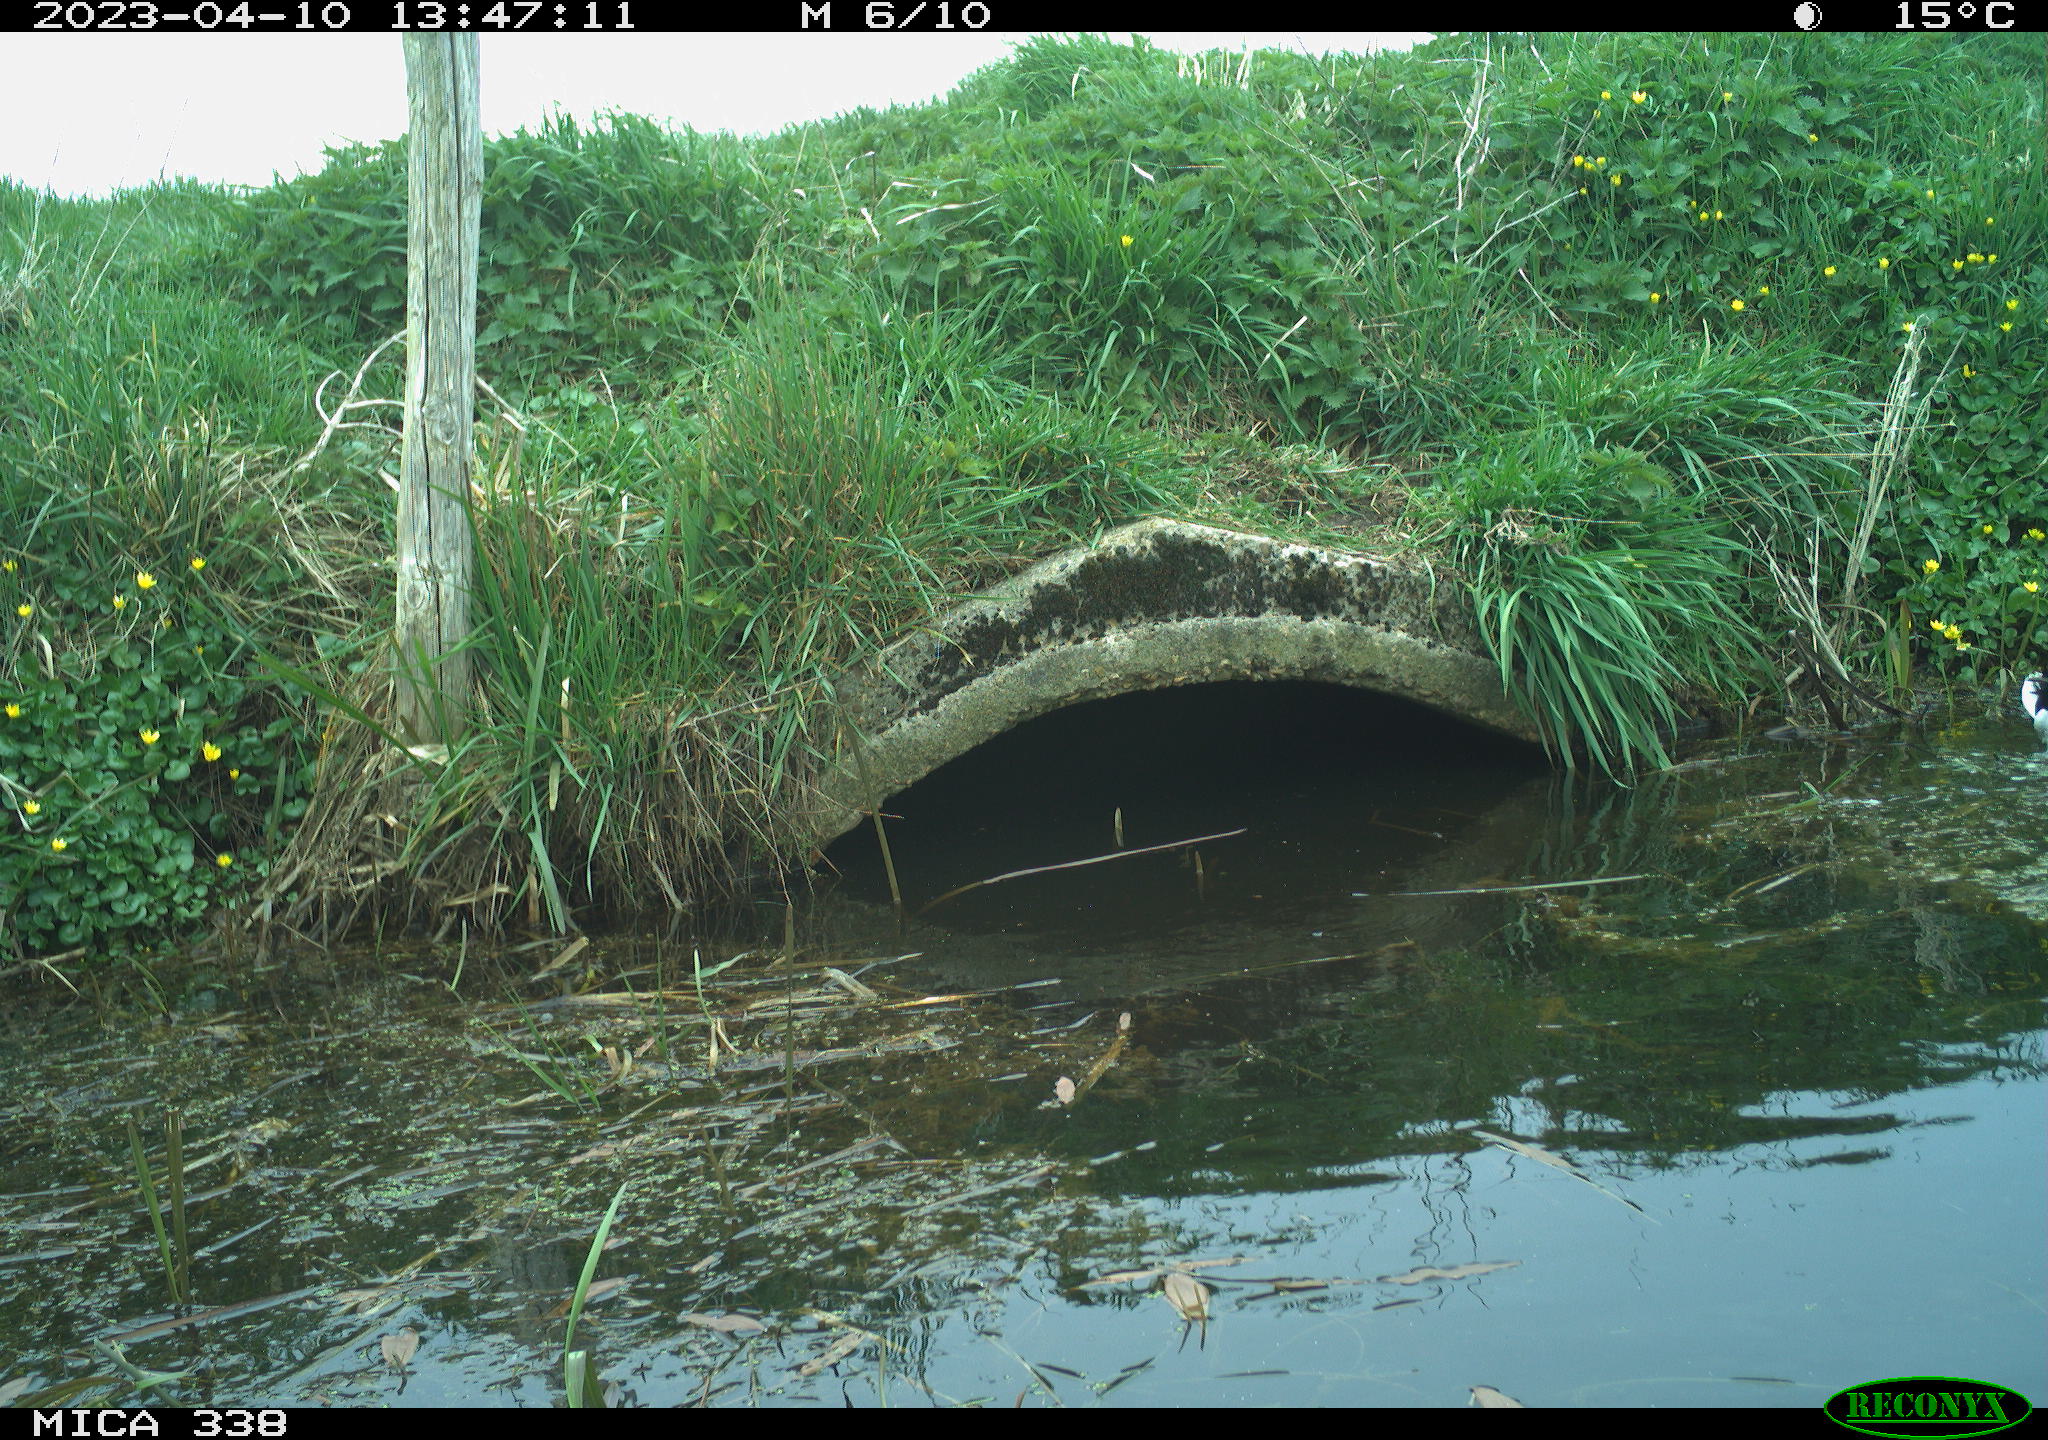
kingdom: Animalia
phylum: Chordata
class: Aves
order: Anseriformes
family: Anatidae
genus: Anas
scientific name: Anas
